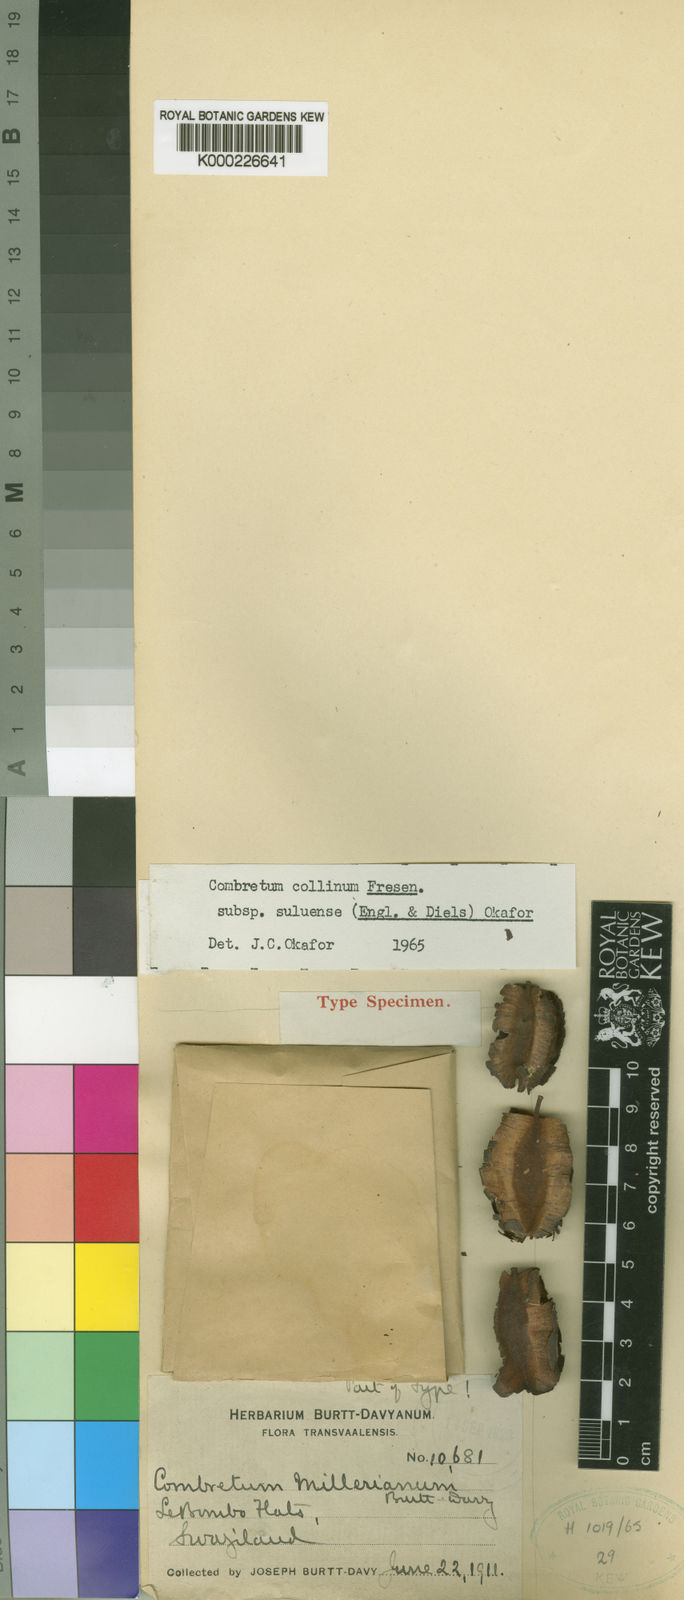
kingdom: Plantae
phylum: Tracheophyta
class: Magnoliopsida
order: Myrtales
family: Combretaceae
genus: Combretum
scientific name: Combretum collinum
